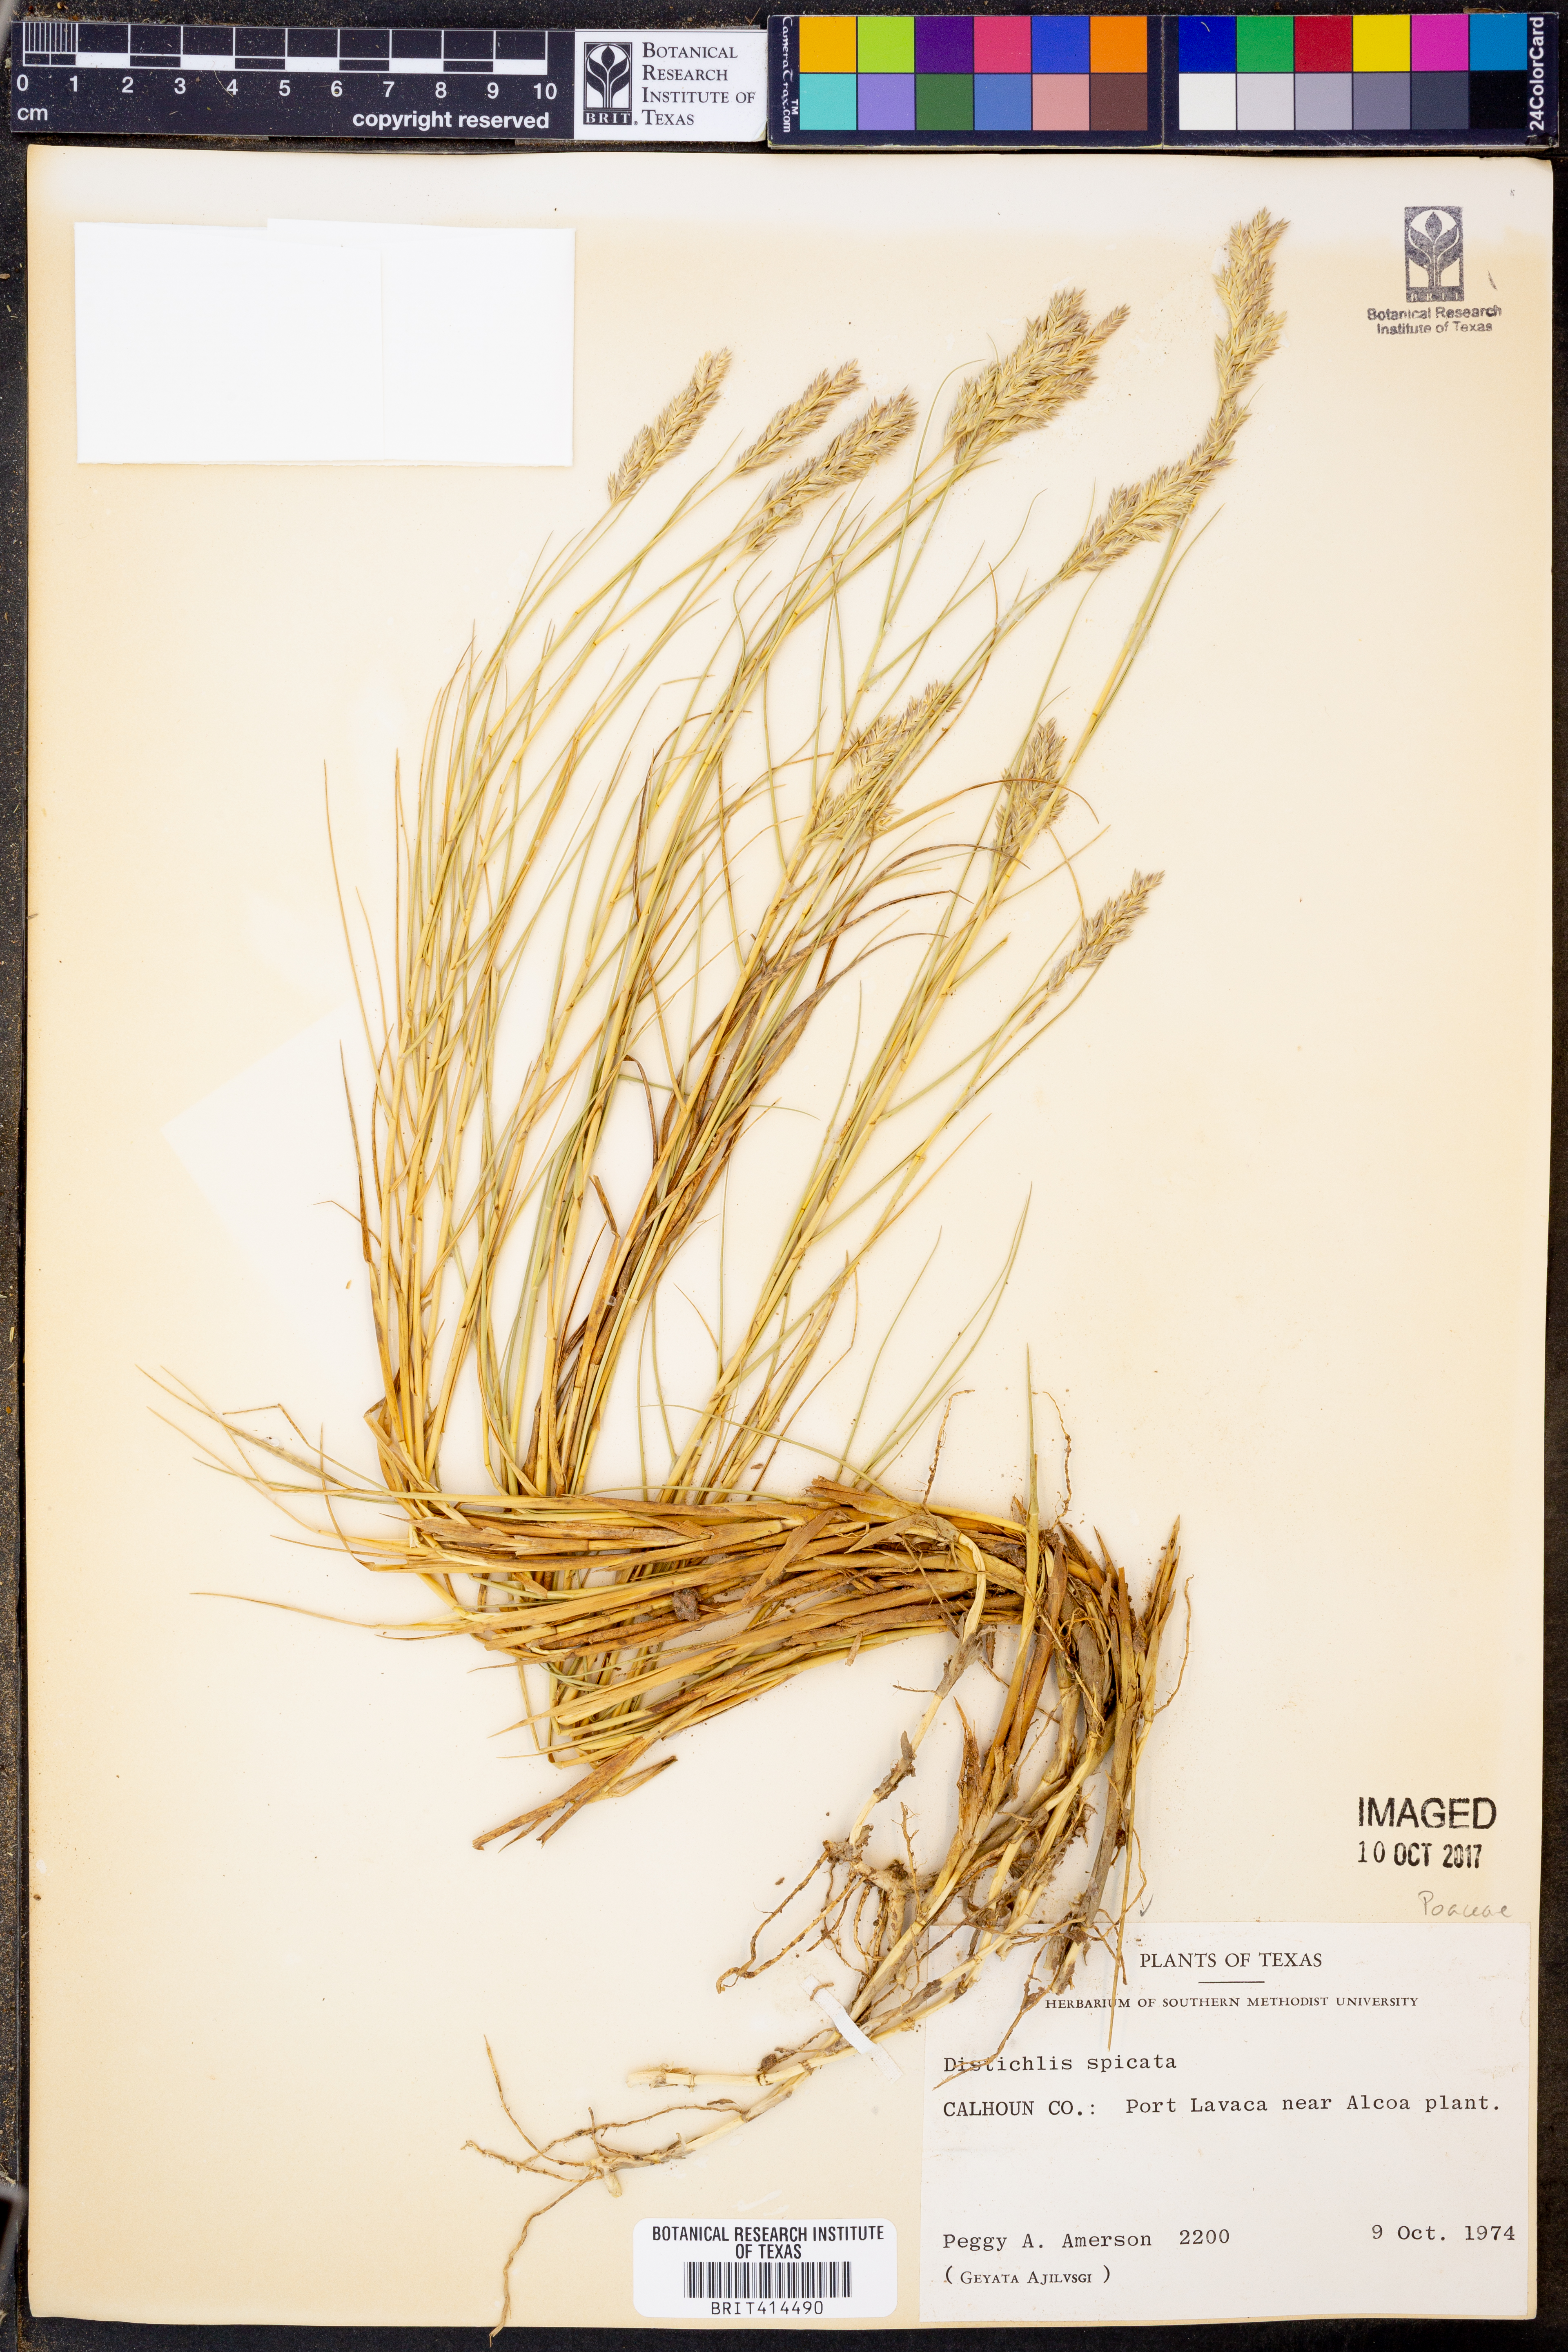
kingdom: Plantae
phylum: Tracheophyta
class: Liliopsida
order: Poales
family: Poaceae
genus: Distichlis
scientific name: Distichlis spicata
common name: Saltgrass
